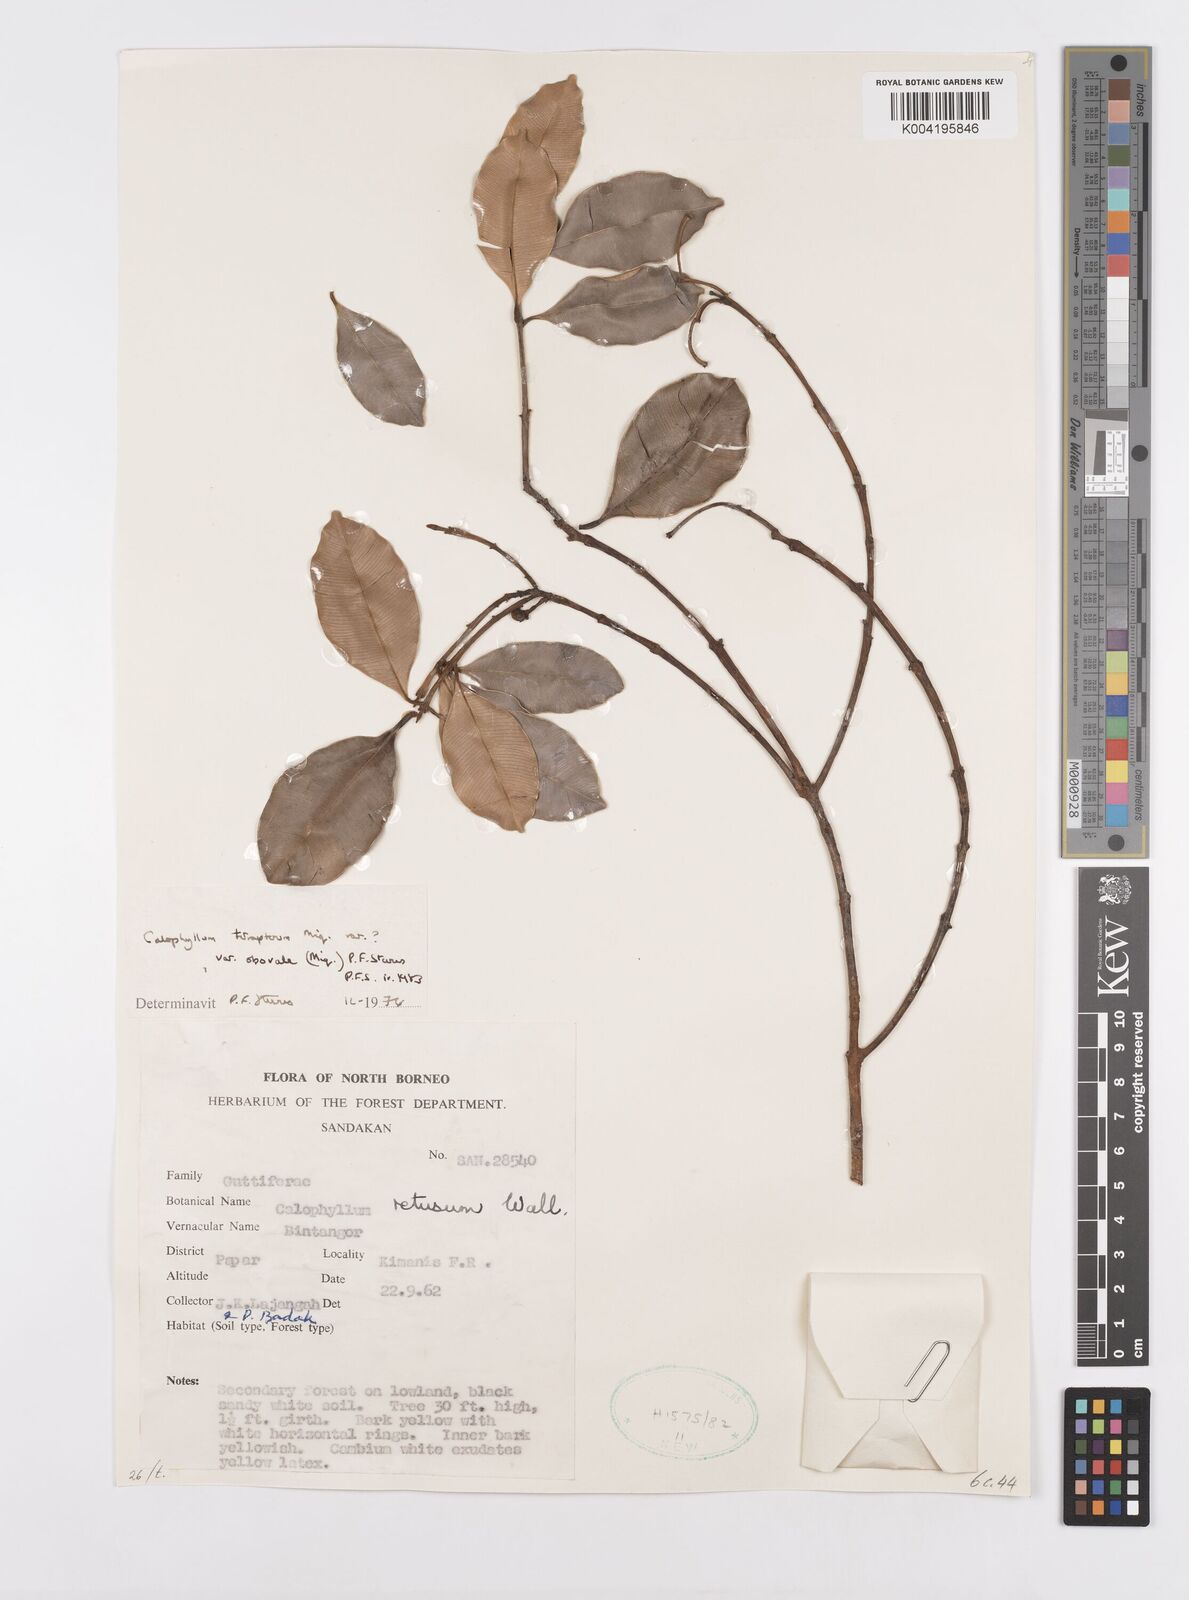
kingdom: Plantae
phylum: Tracheophyta
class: Magnoliopsida
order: Malpighiales
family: Calophyllaceae
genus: Calophyllum
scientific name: Calophyllum tetrapterum
